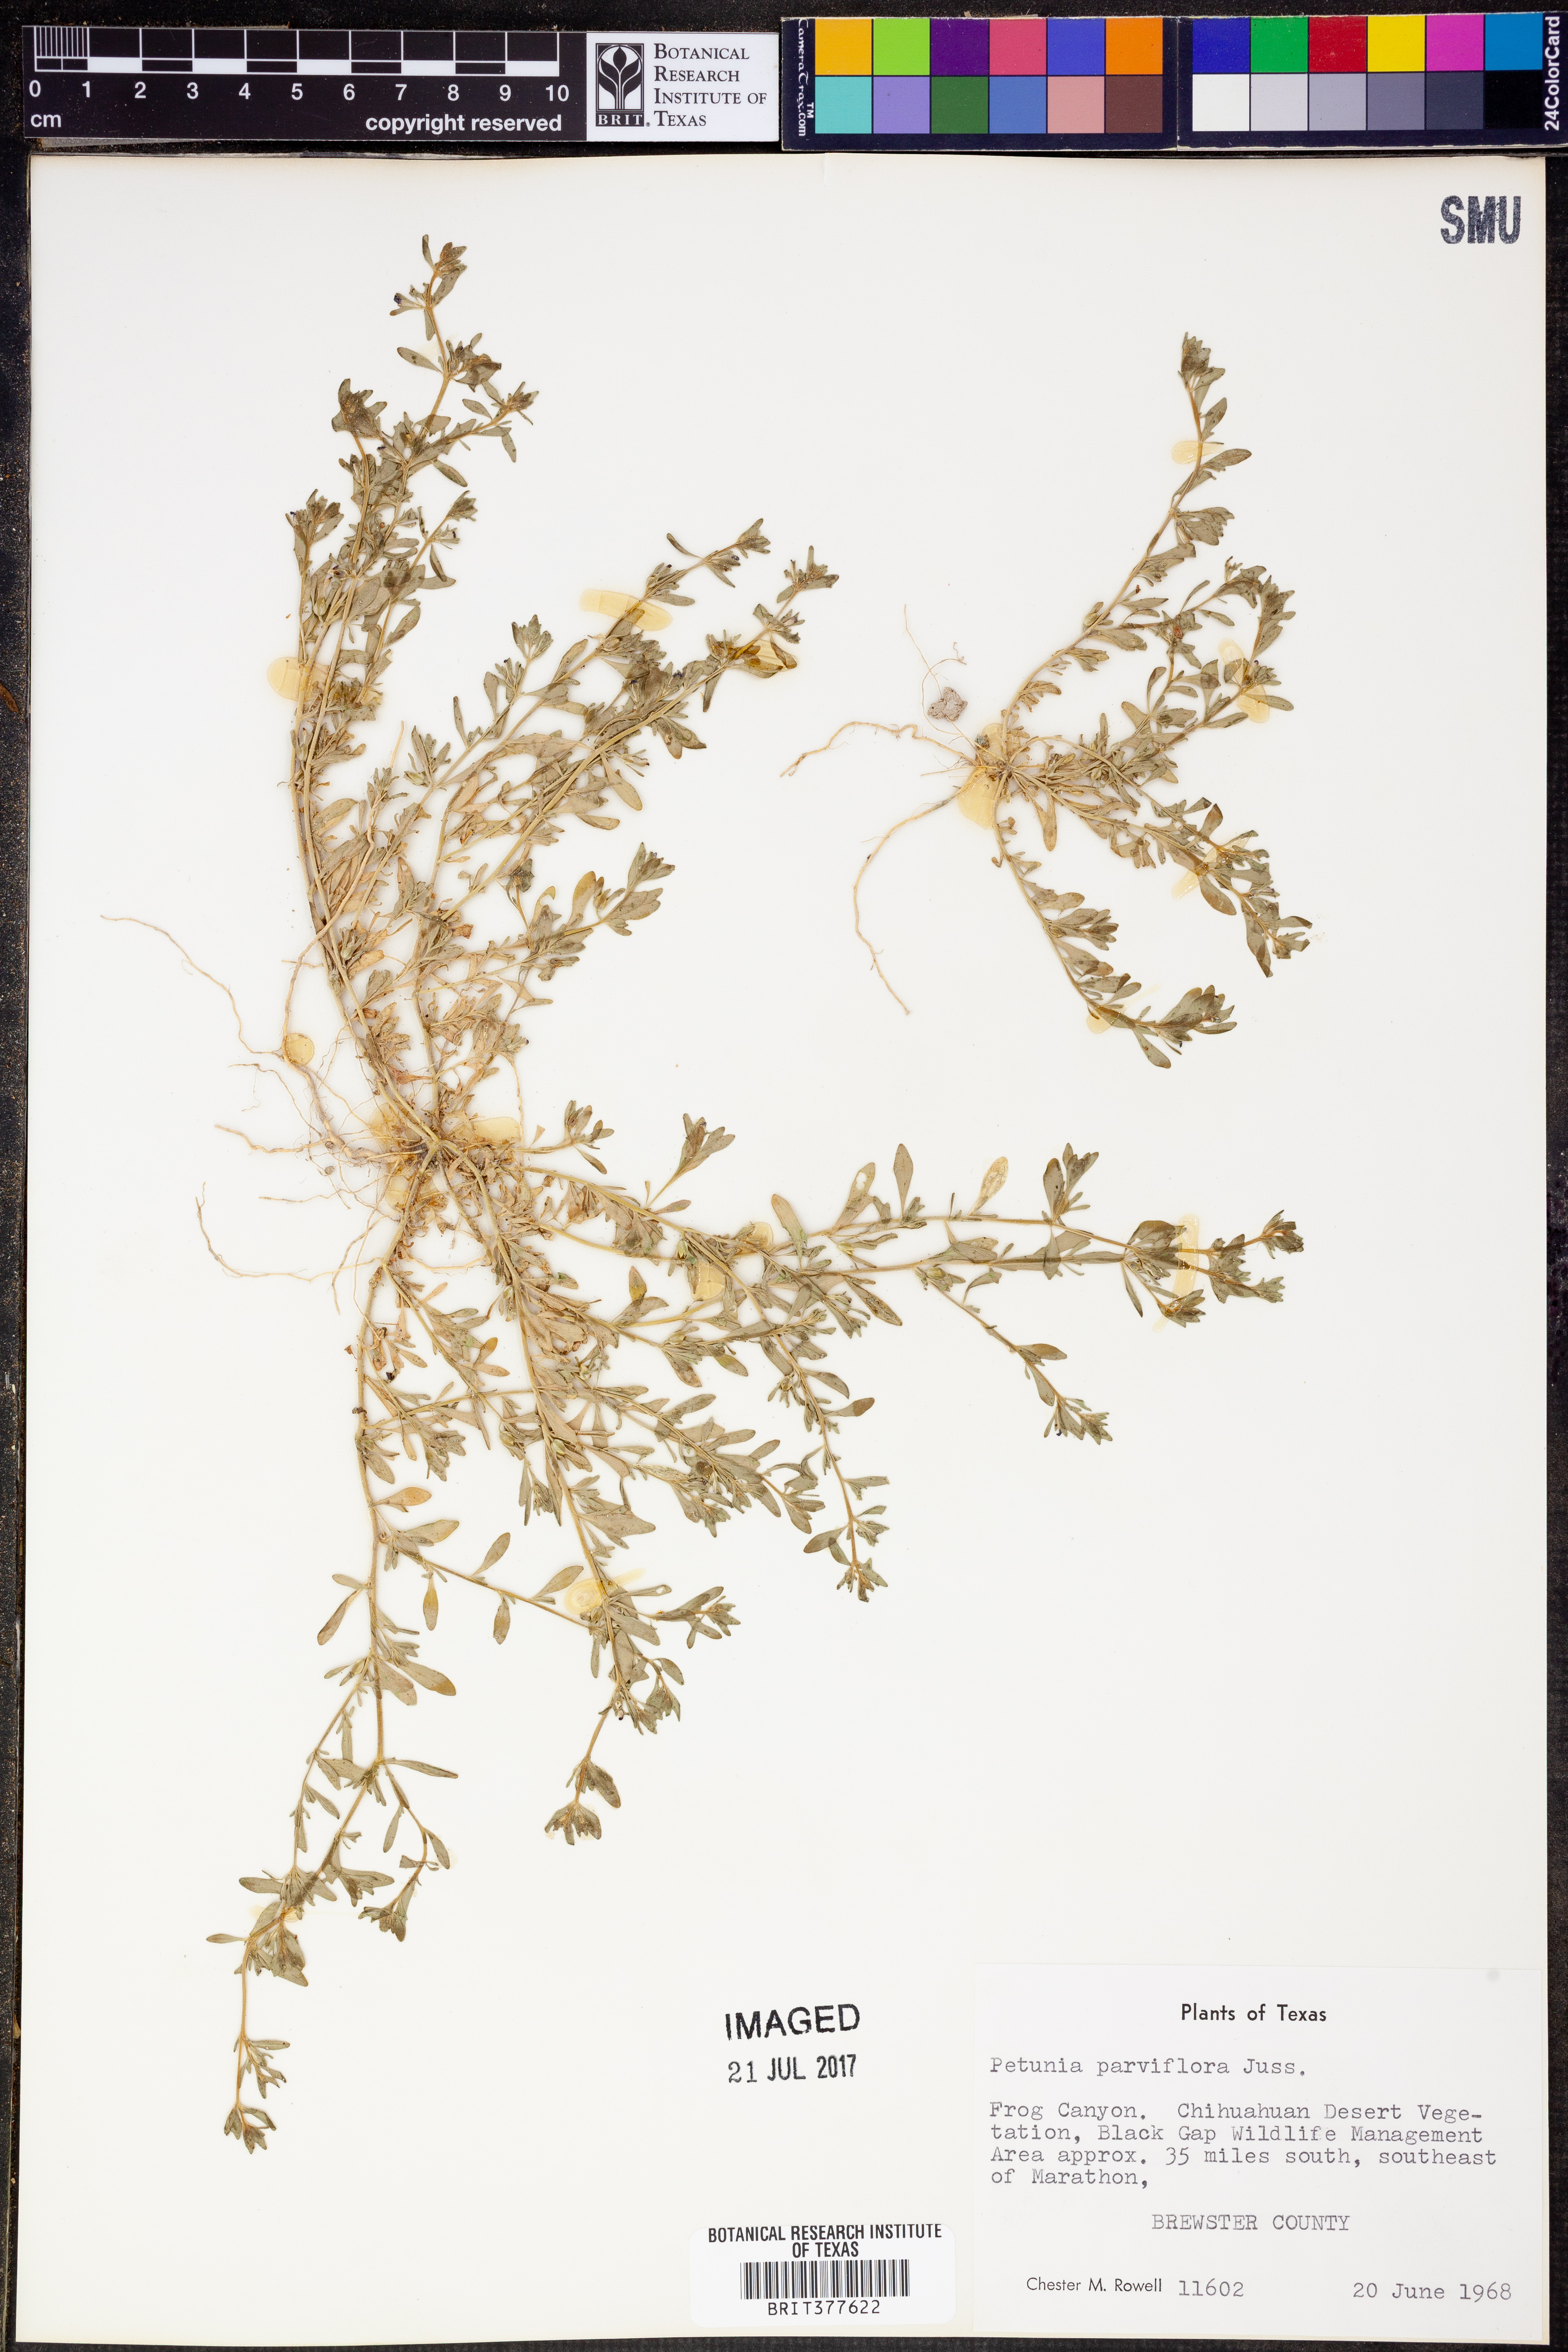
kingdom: Plantae
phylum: Tracheophyta
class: Magnoliopsida
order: Solanales
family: Solanaceae
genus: Calibrachoa
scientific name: Calibrachoa parviflora
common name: Seaside petunia
